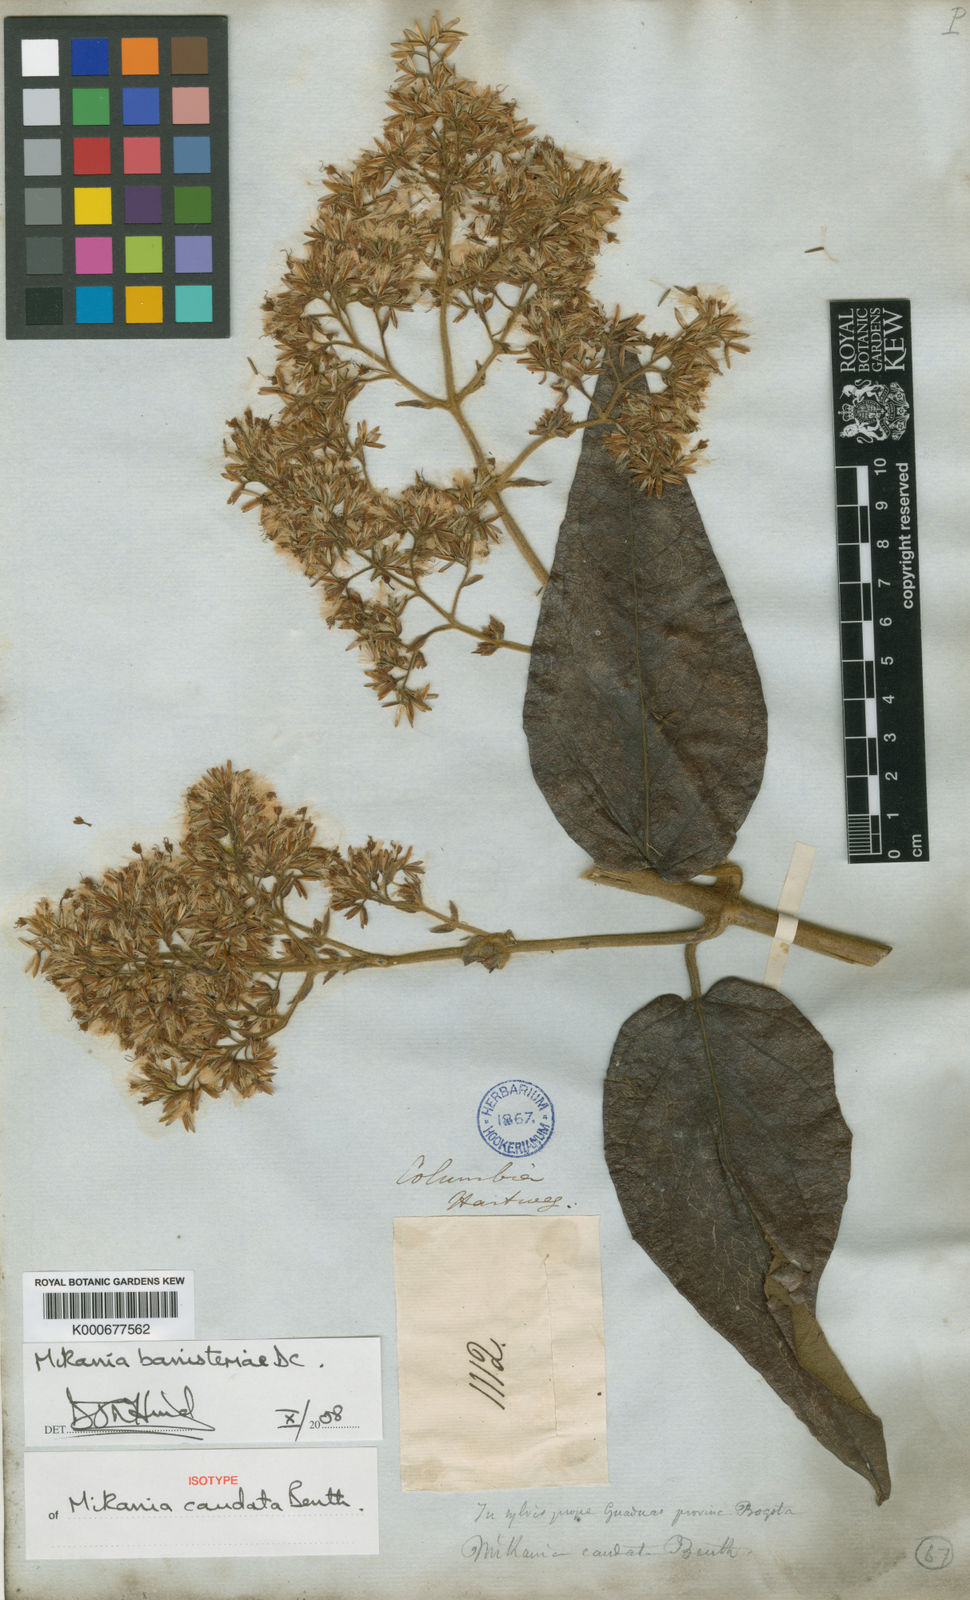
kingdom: Plantae
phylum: Tracheophyta
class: Magnoliopsida
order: Asterales
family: Asteraceae
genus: Mikania
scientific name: Mikania banisteriae
